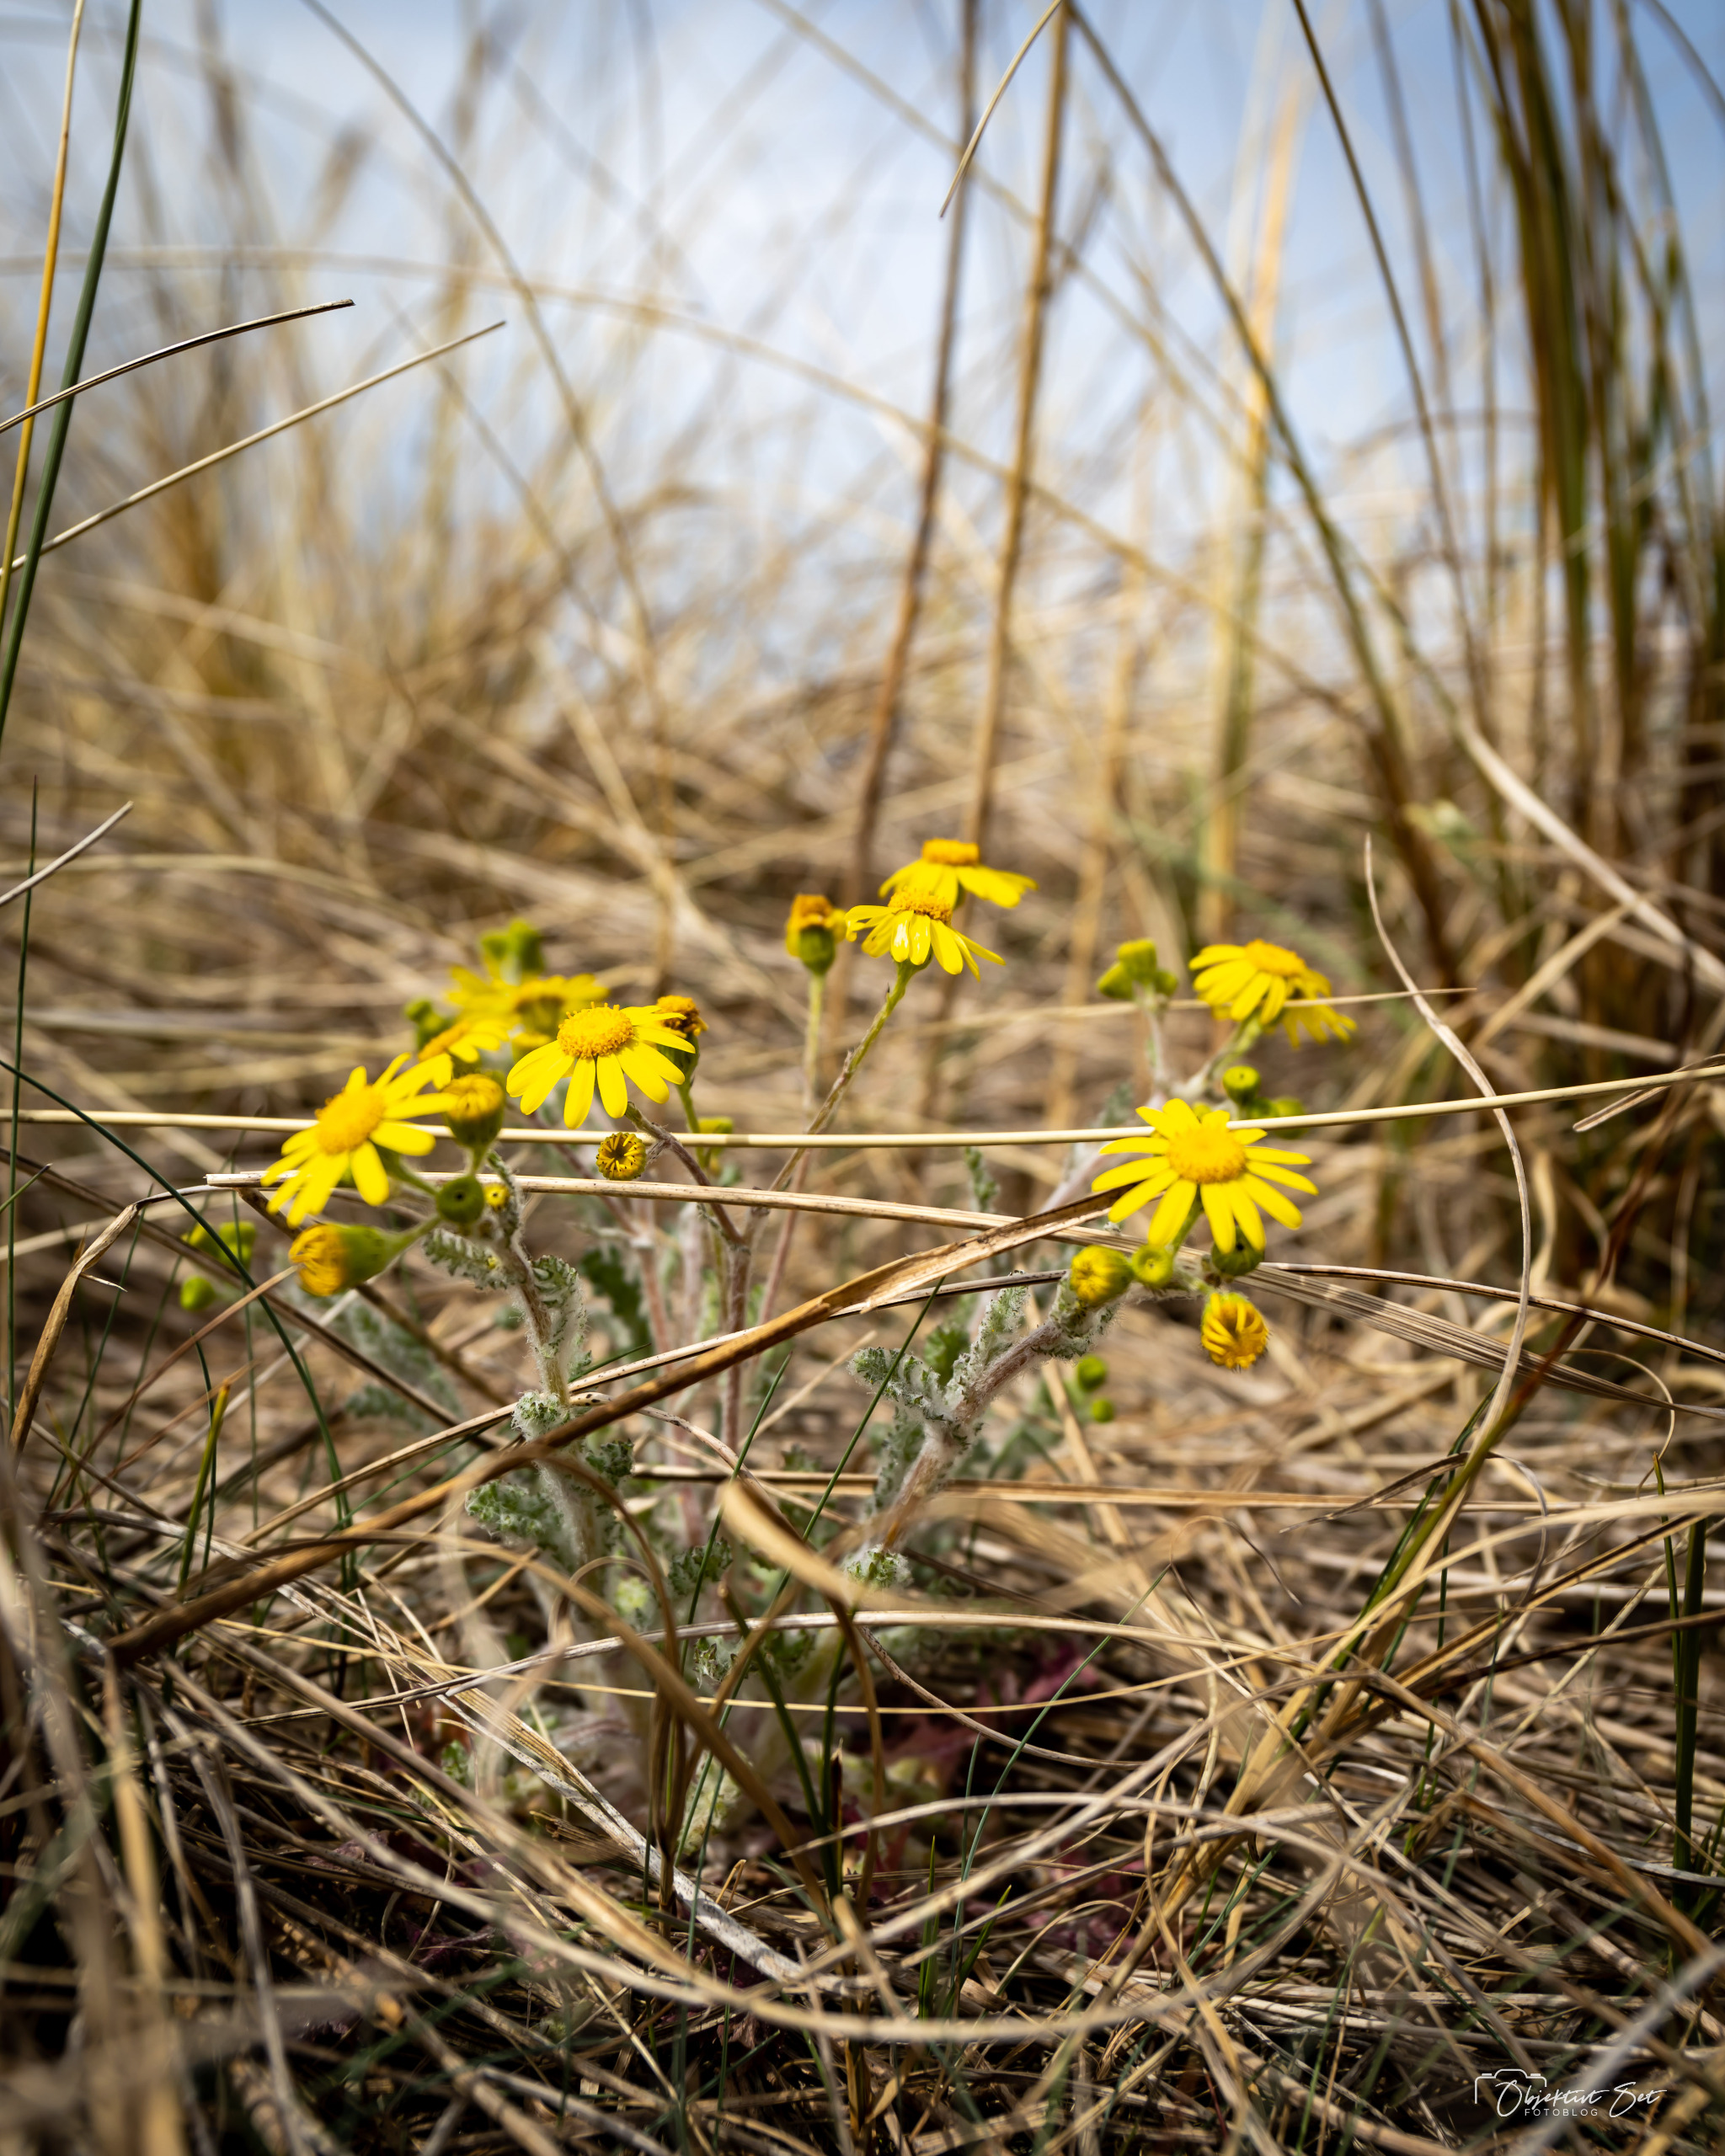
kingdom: Plantae
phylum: Tracheophyta
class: Magnoliopsida
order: Asterales
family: Asteraceae
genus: Senecio
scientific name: Senecio leucanthemifolius
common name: Vår-brandbæger
